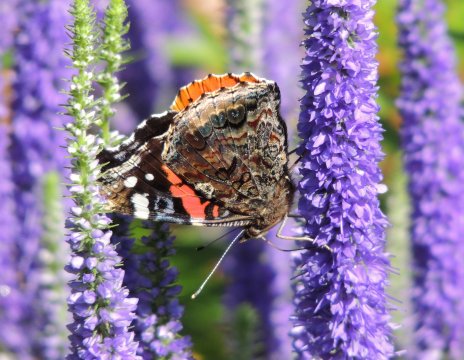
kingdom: Animalia
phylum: Arthropoda
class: Insecta
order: Lepidoptera
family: Nymphalidae
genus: Vanessa
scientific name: Vanessa atalanta
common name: Red Admiral
